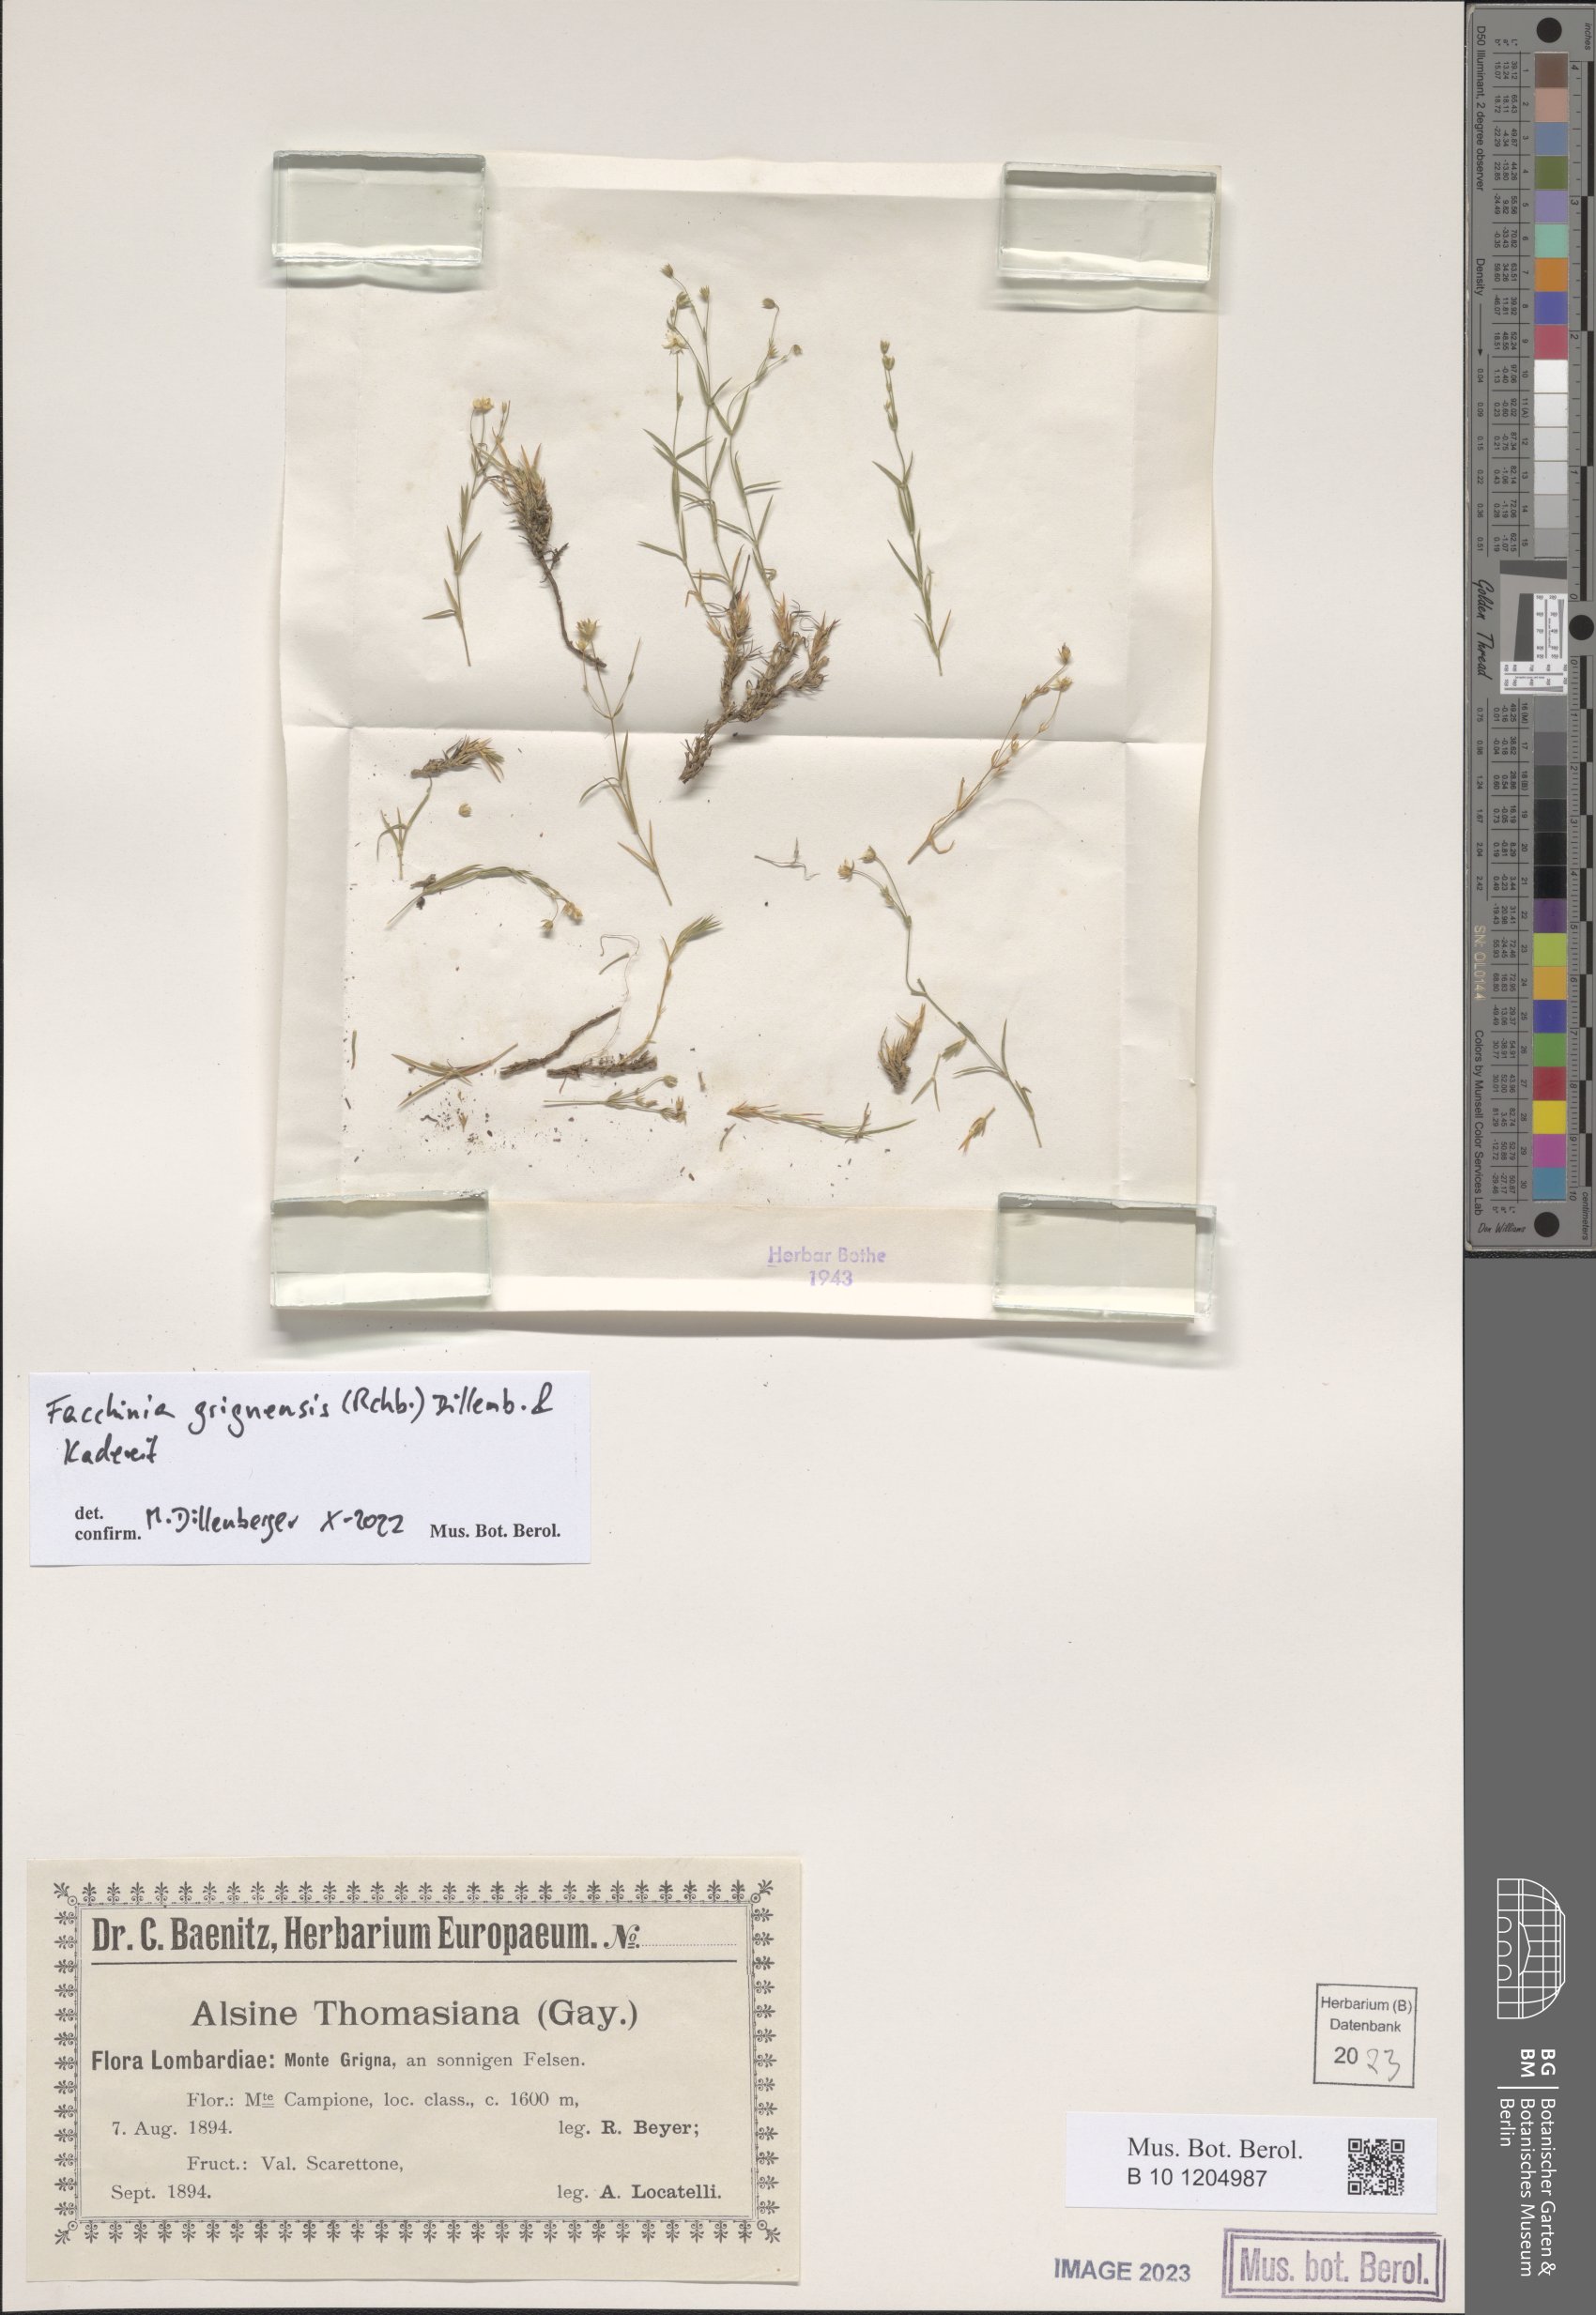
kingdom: Plantae
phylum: Tracheophyta
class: Magnoliopsida
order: Caryophyllales
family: Caryophyllaceae
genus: Facchinia
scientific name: Facchinia grignensis
